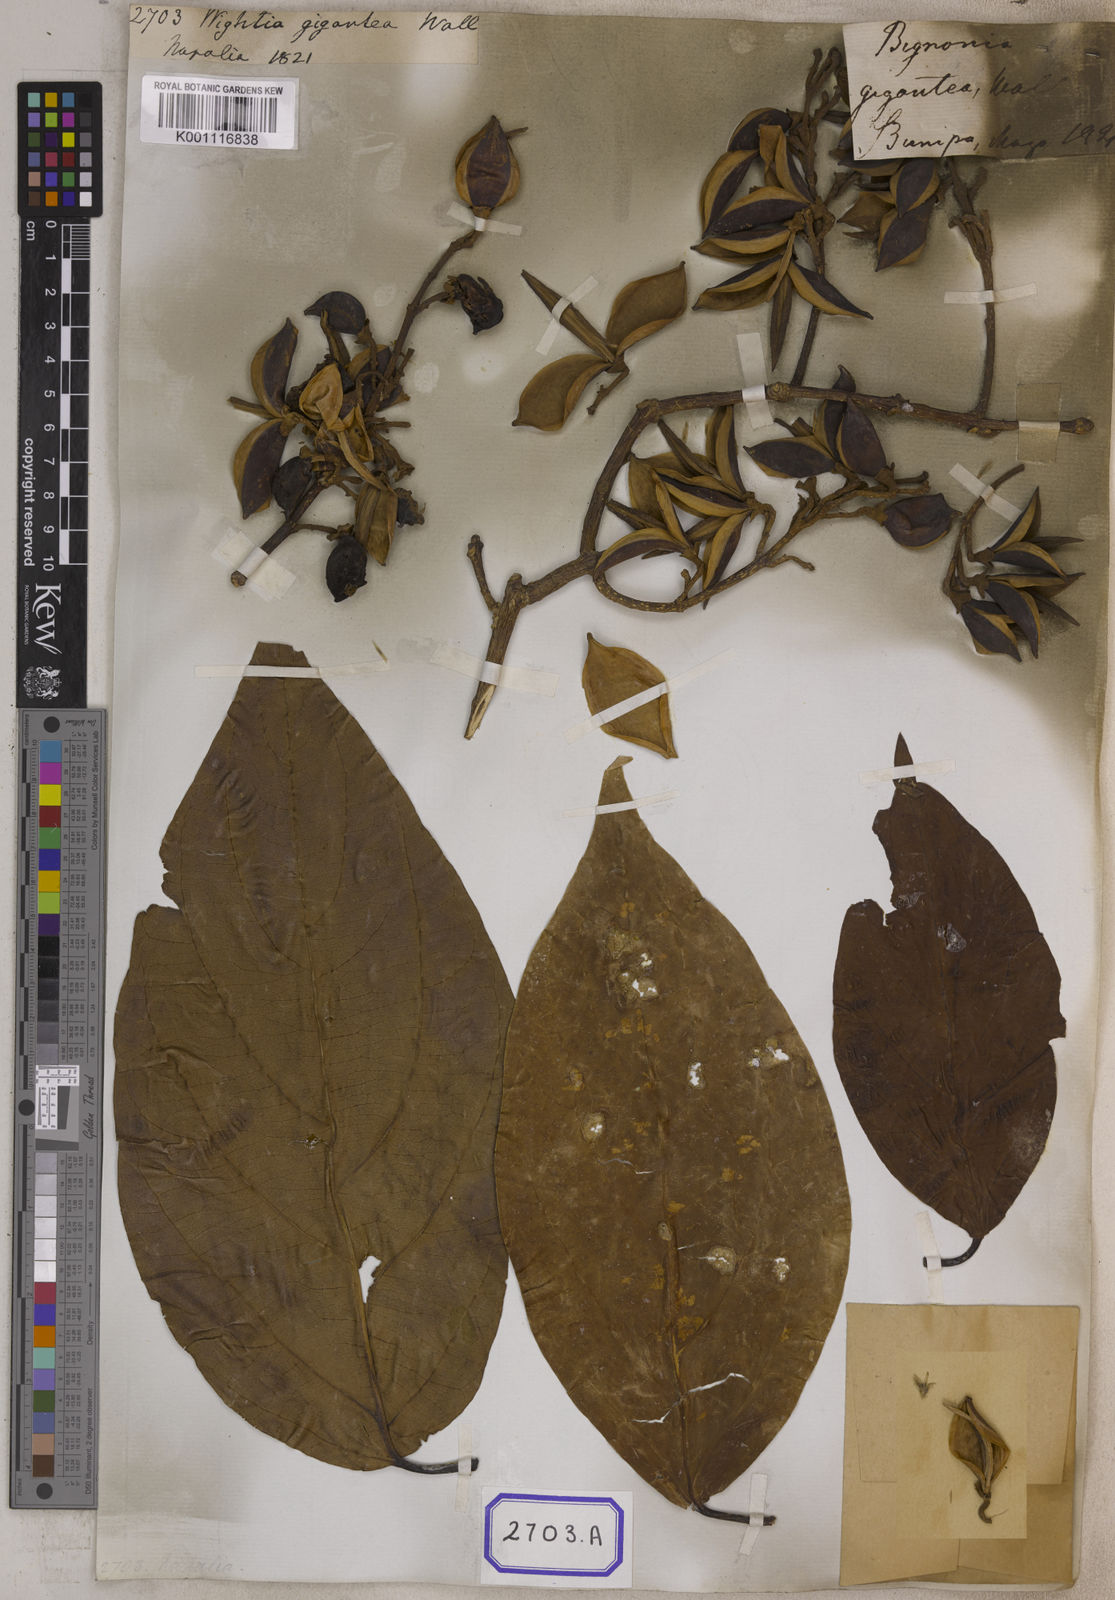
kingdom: Plantae
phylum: Tracheophyta
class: Magnoliopsida
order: Lamiales
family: Wightiaceae
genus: Wightia
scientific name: Wightia speciosissima
